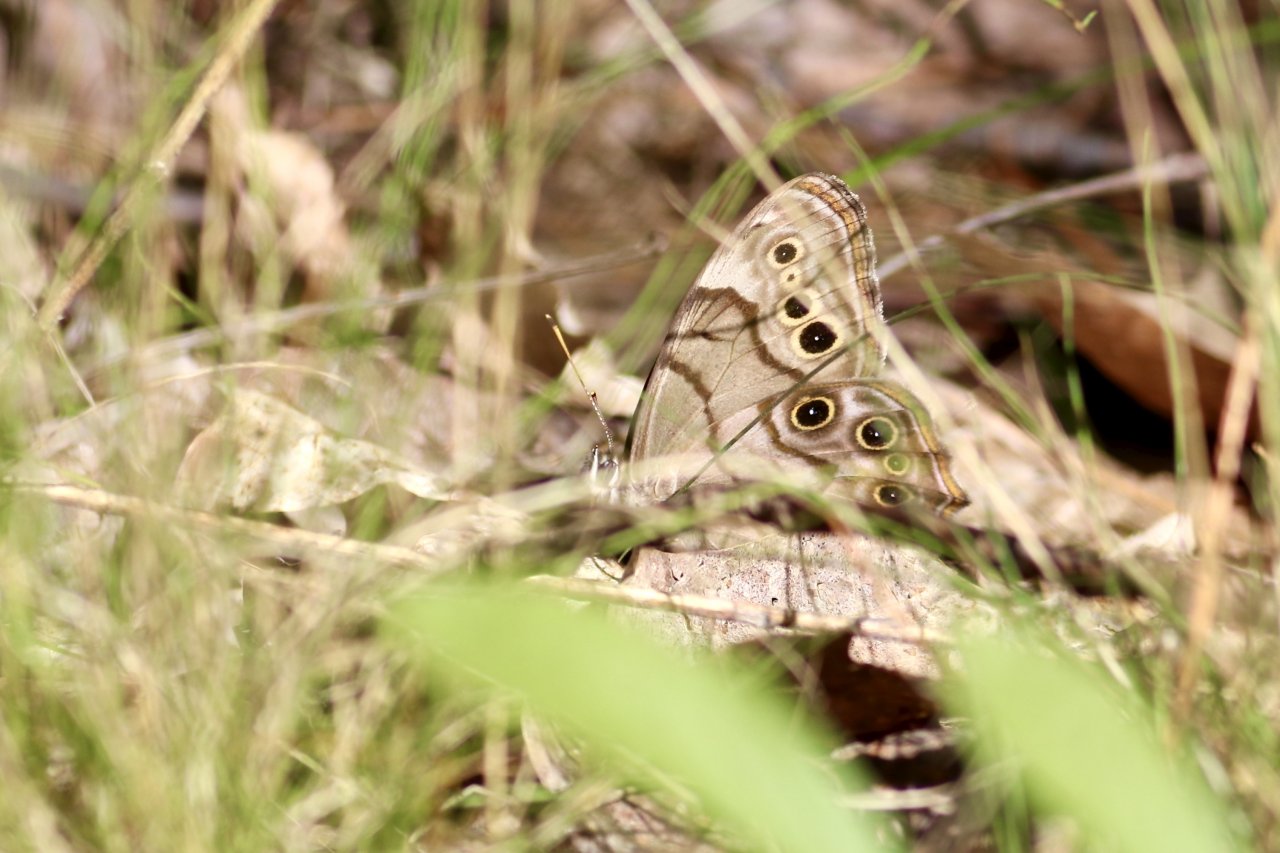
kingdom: Animalia
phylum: Arthropoda
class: Insecta
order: Lepidoptera
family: Nymphalidae
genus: Lethe
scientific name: Lethe anthedon
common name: Northern Pearly-Eye
